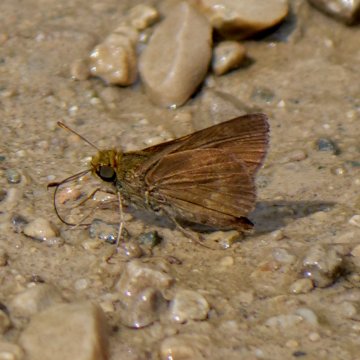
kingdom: Animalia
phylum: Arthropoda
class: Insecta
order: Lepidoptera
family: Hesperiidae
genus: Euphyes
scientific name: Euphyes vestris
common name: Dun Skipper
